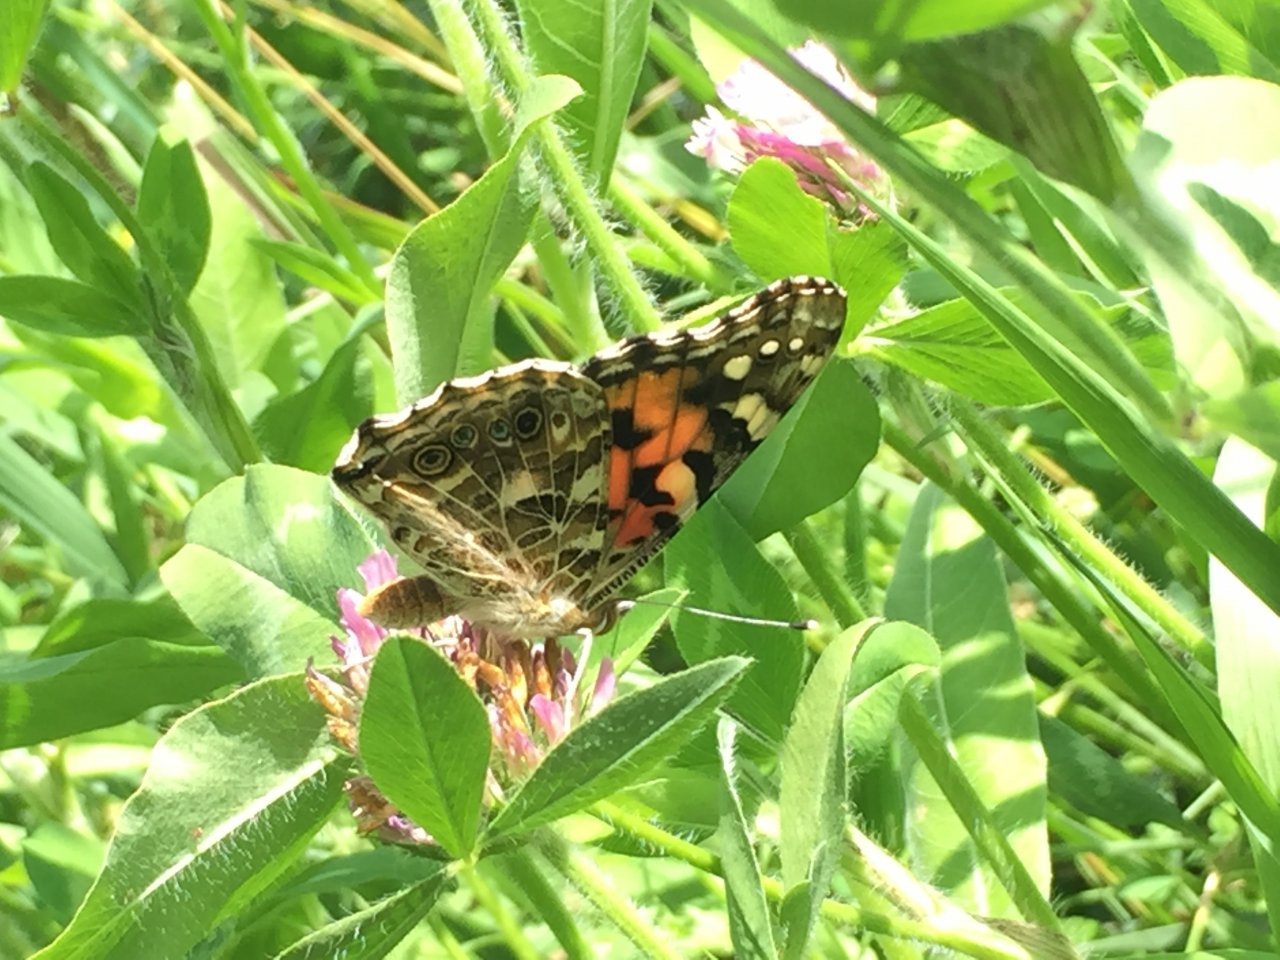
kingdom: Animalia
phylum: Arthropoda
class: Insecta
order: Lepidoptera
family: Nymphalidae
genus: Vanessa
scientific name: Vanessa cardui
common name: Painted Lady
